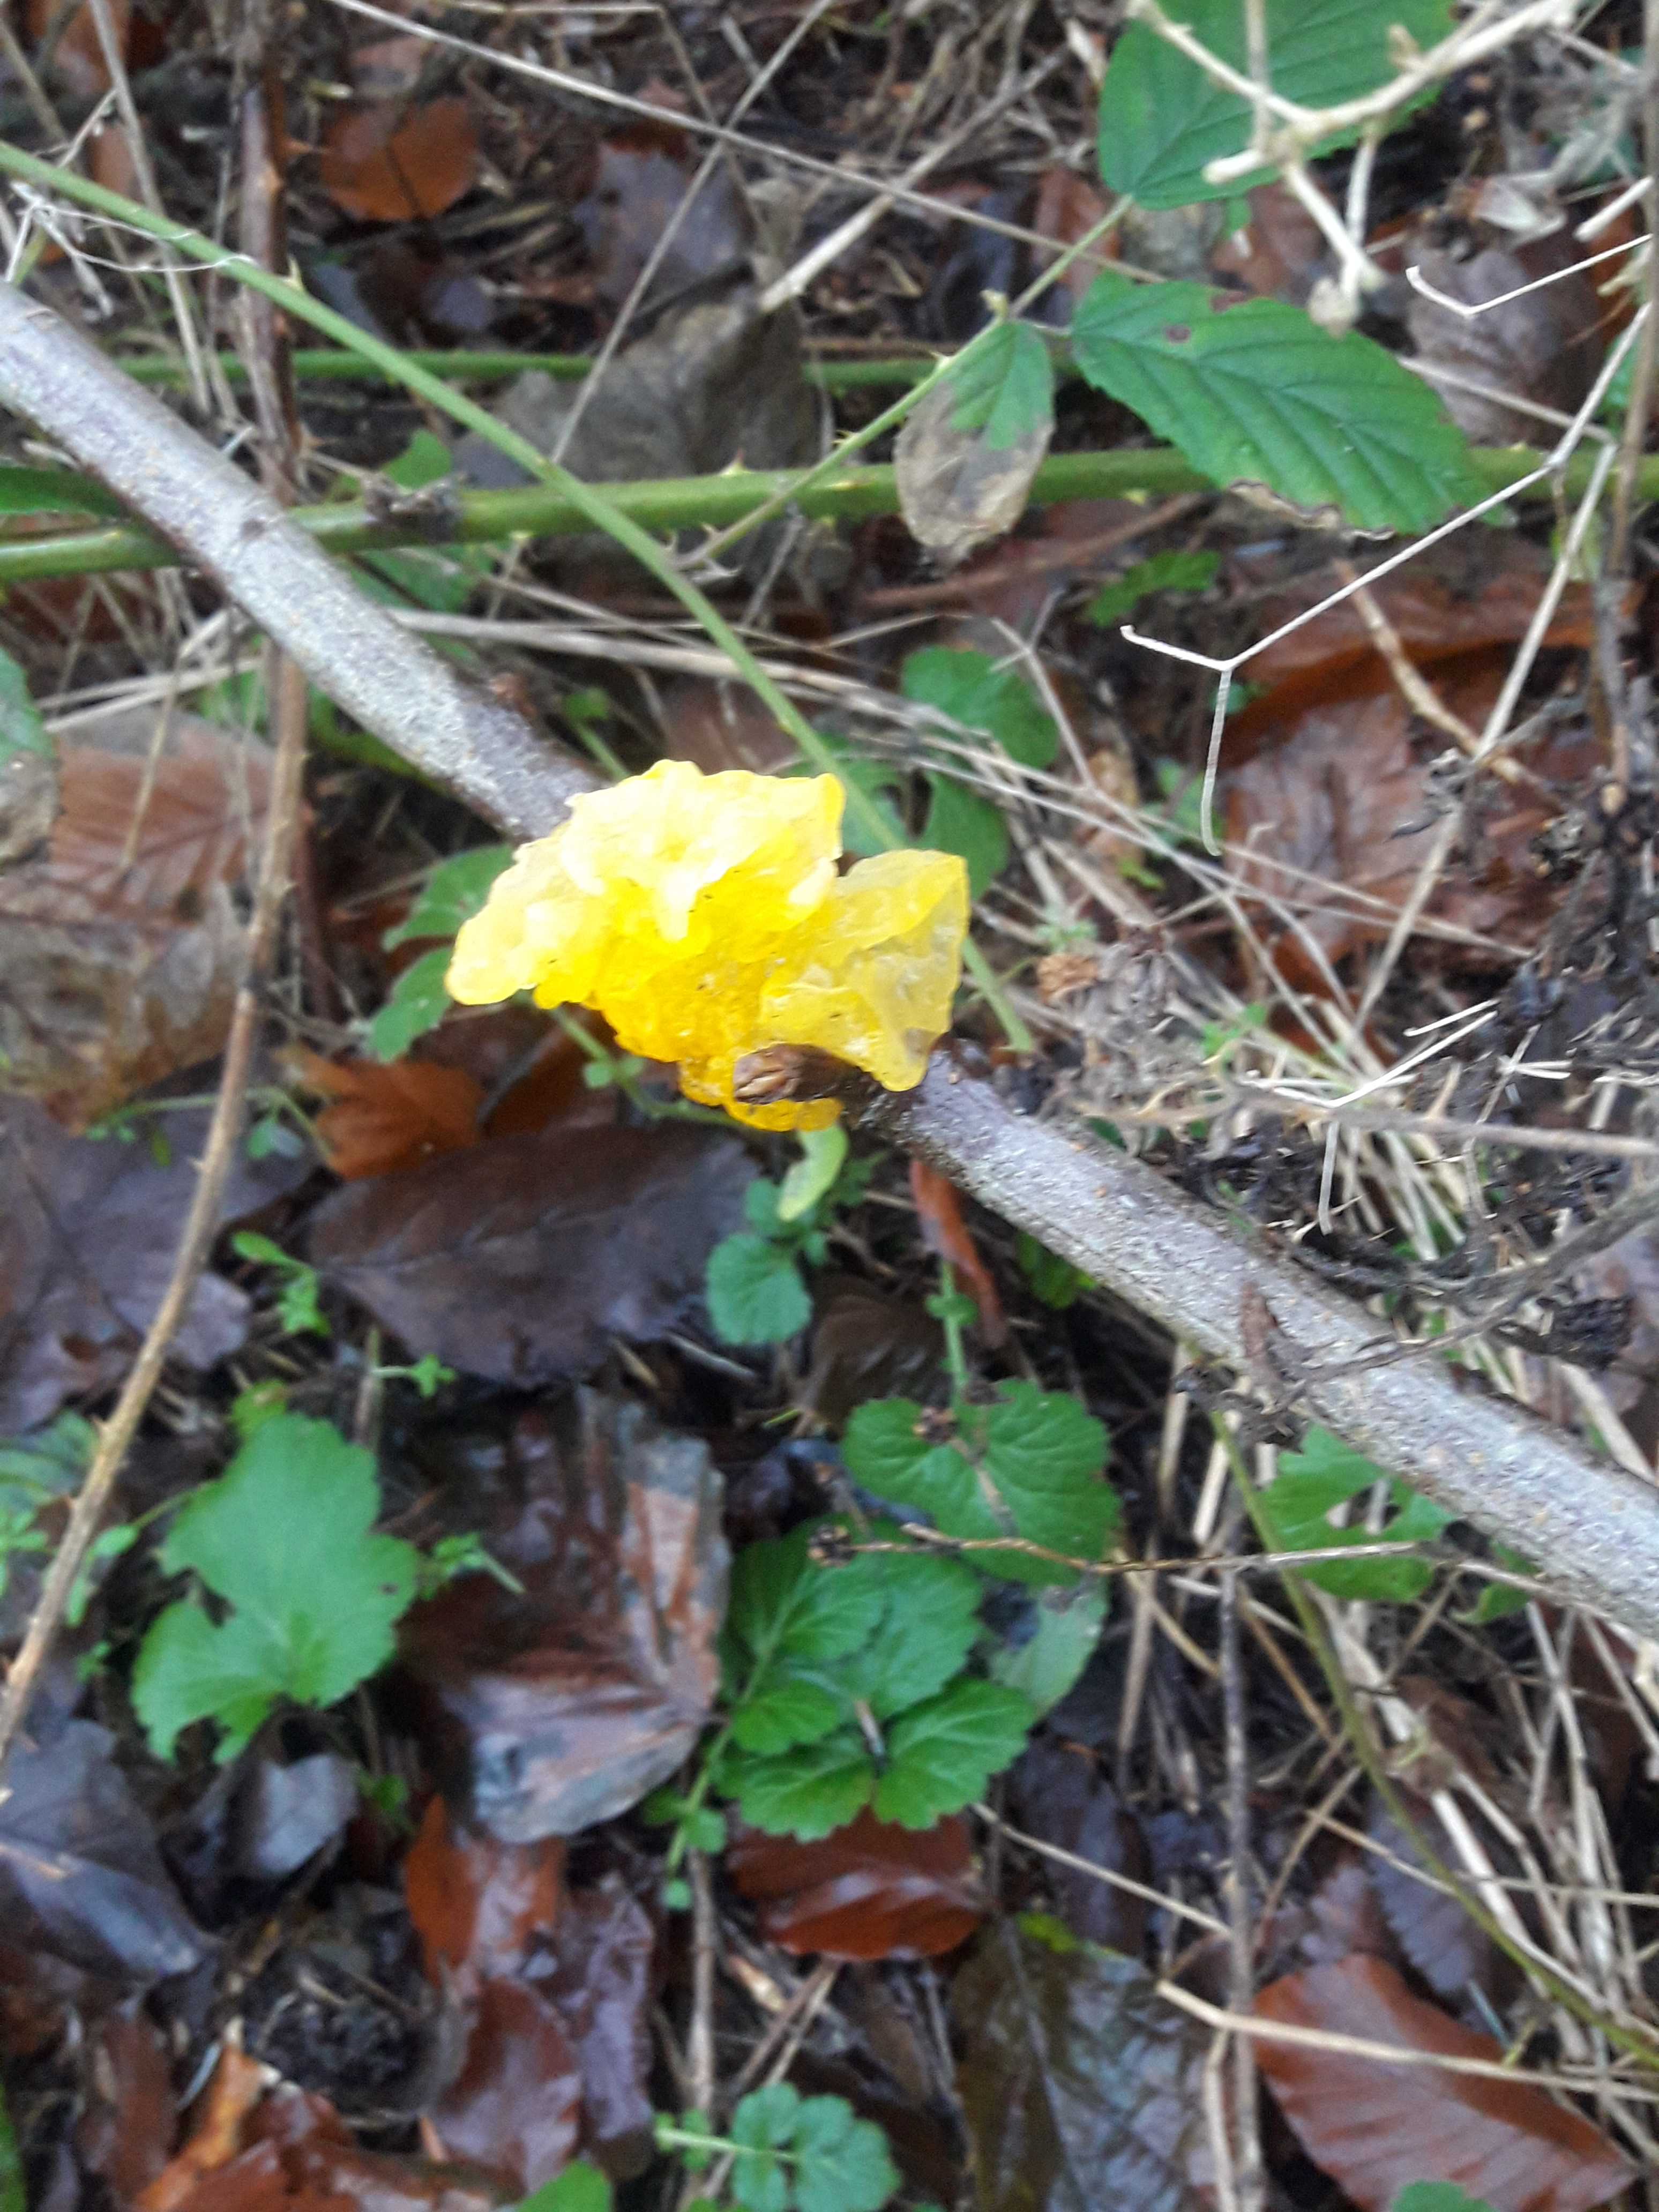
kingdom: Fungi
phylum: Basidiomycota
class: Tremellomycetes
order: Tremellales
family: Tremellaceae
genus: Tremella
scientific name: Tremella mesenterica
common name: gul bævresvamp
